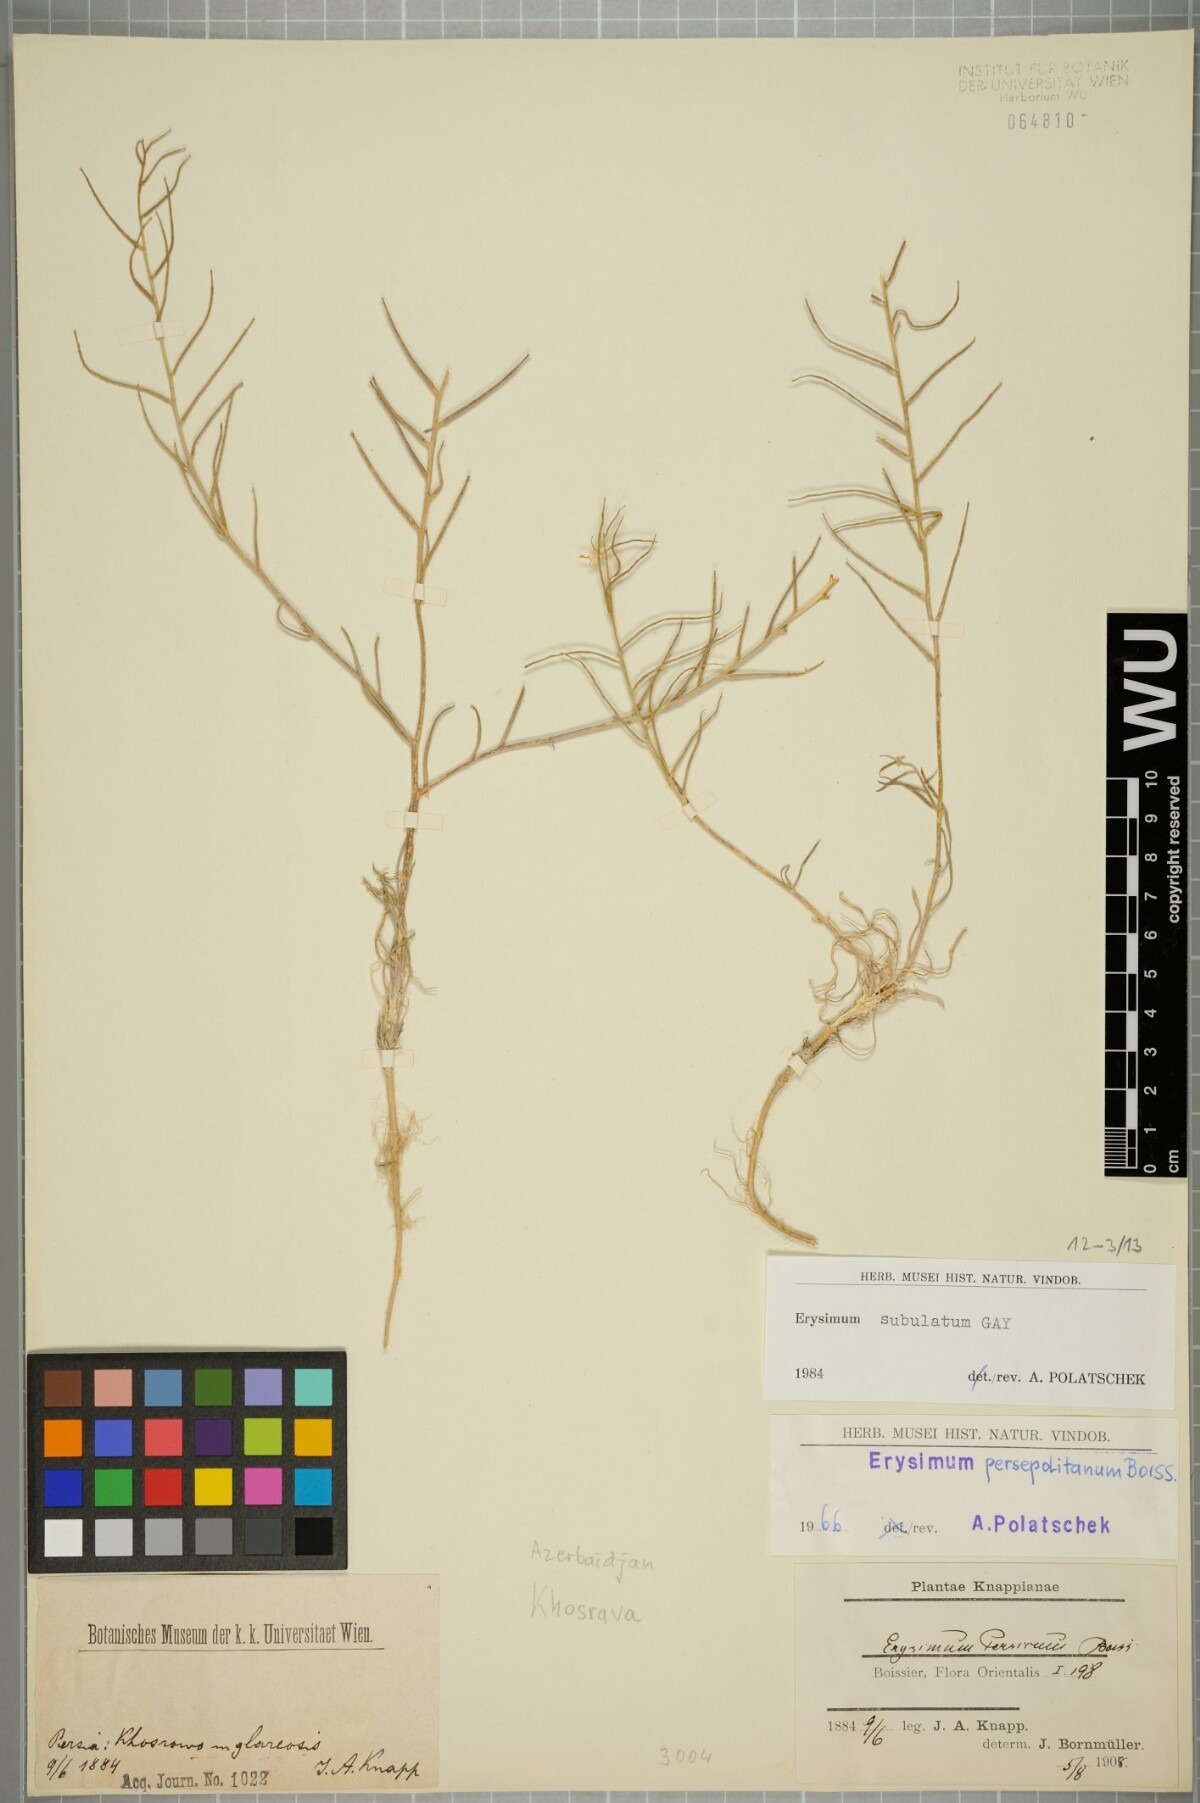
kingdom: Plantae
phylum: Tracheophyta
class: Magnoliopsida
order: Brassicales
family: Brassicaceae
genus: Erysimum
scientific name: Erysimum subulatum
